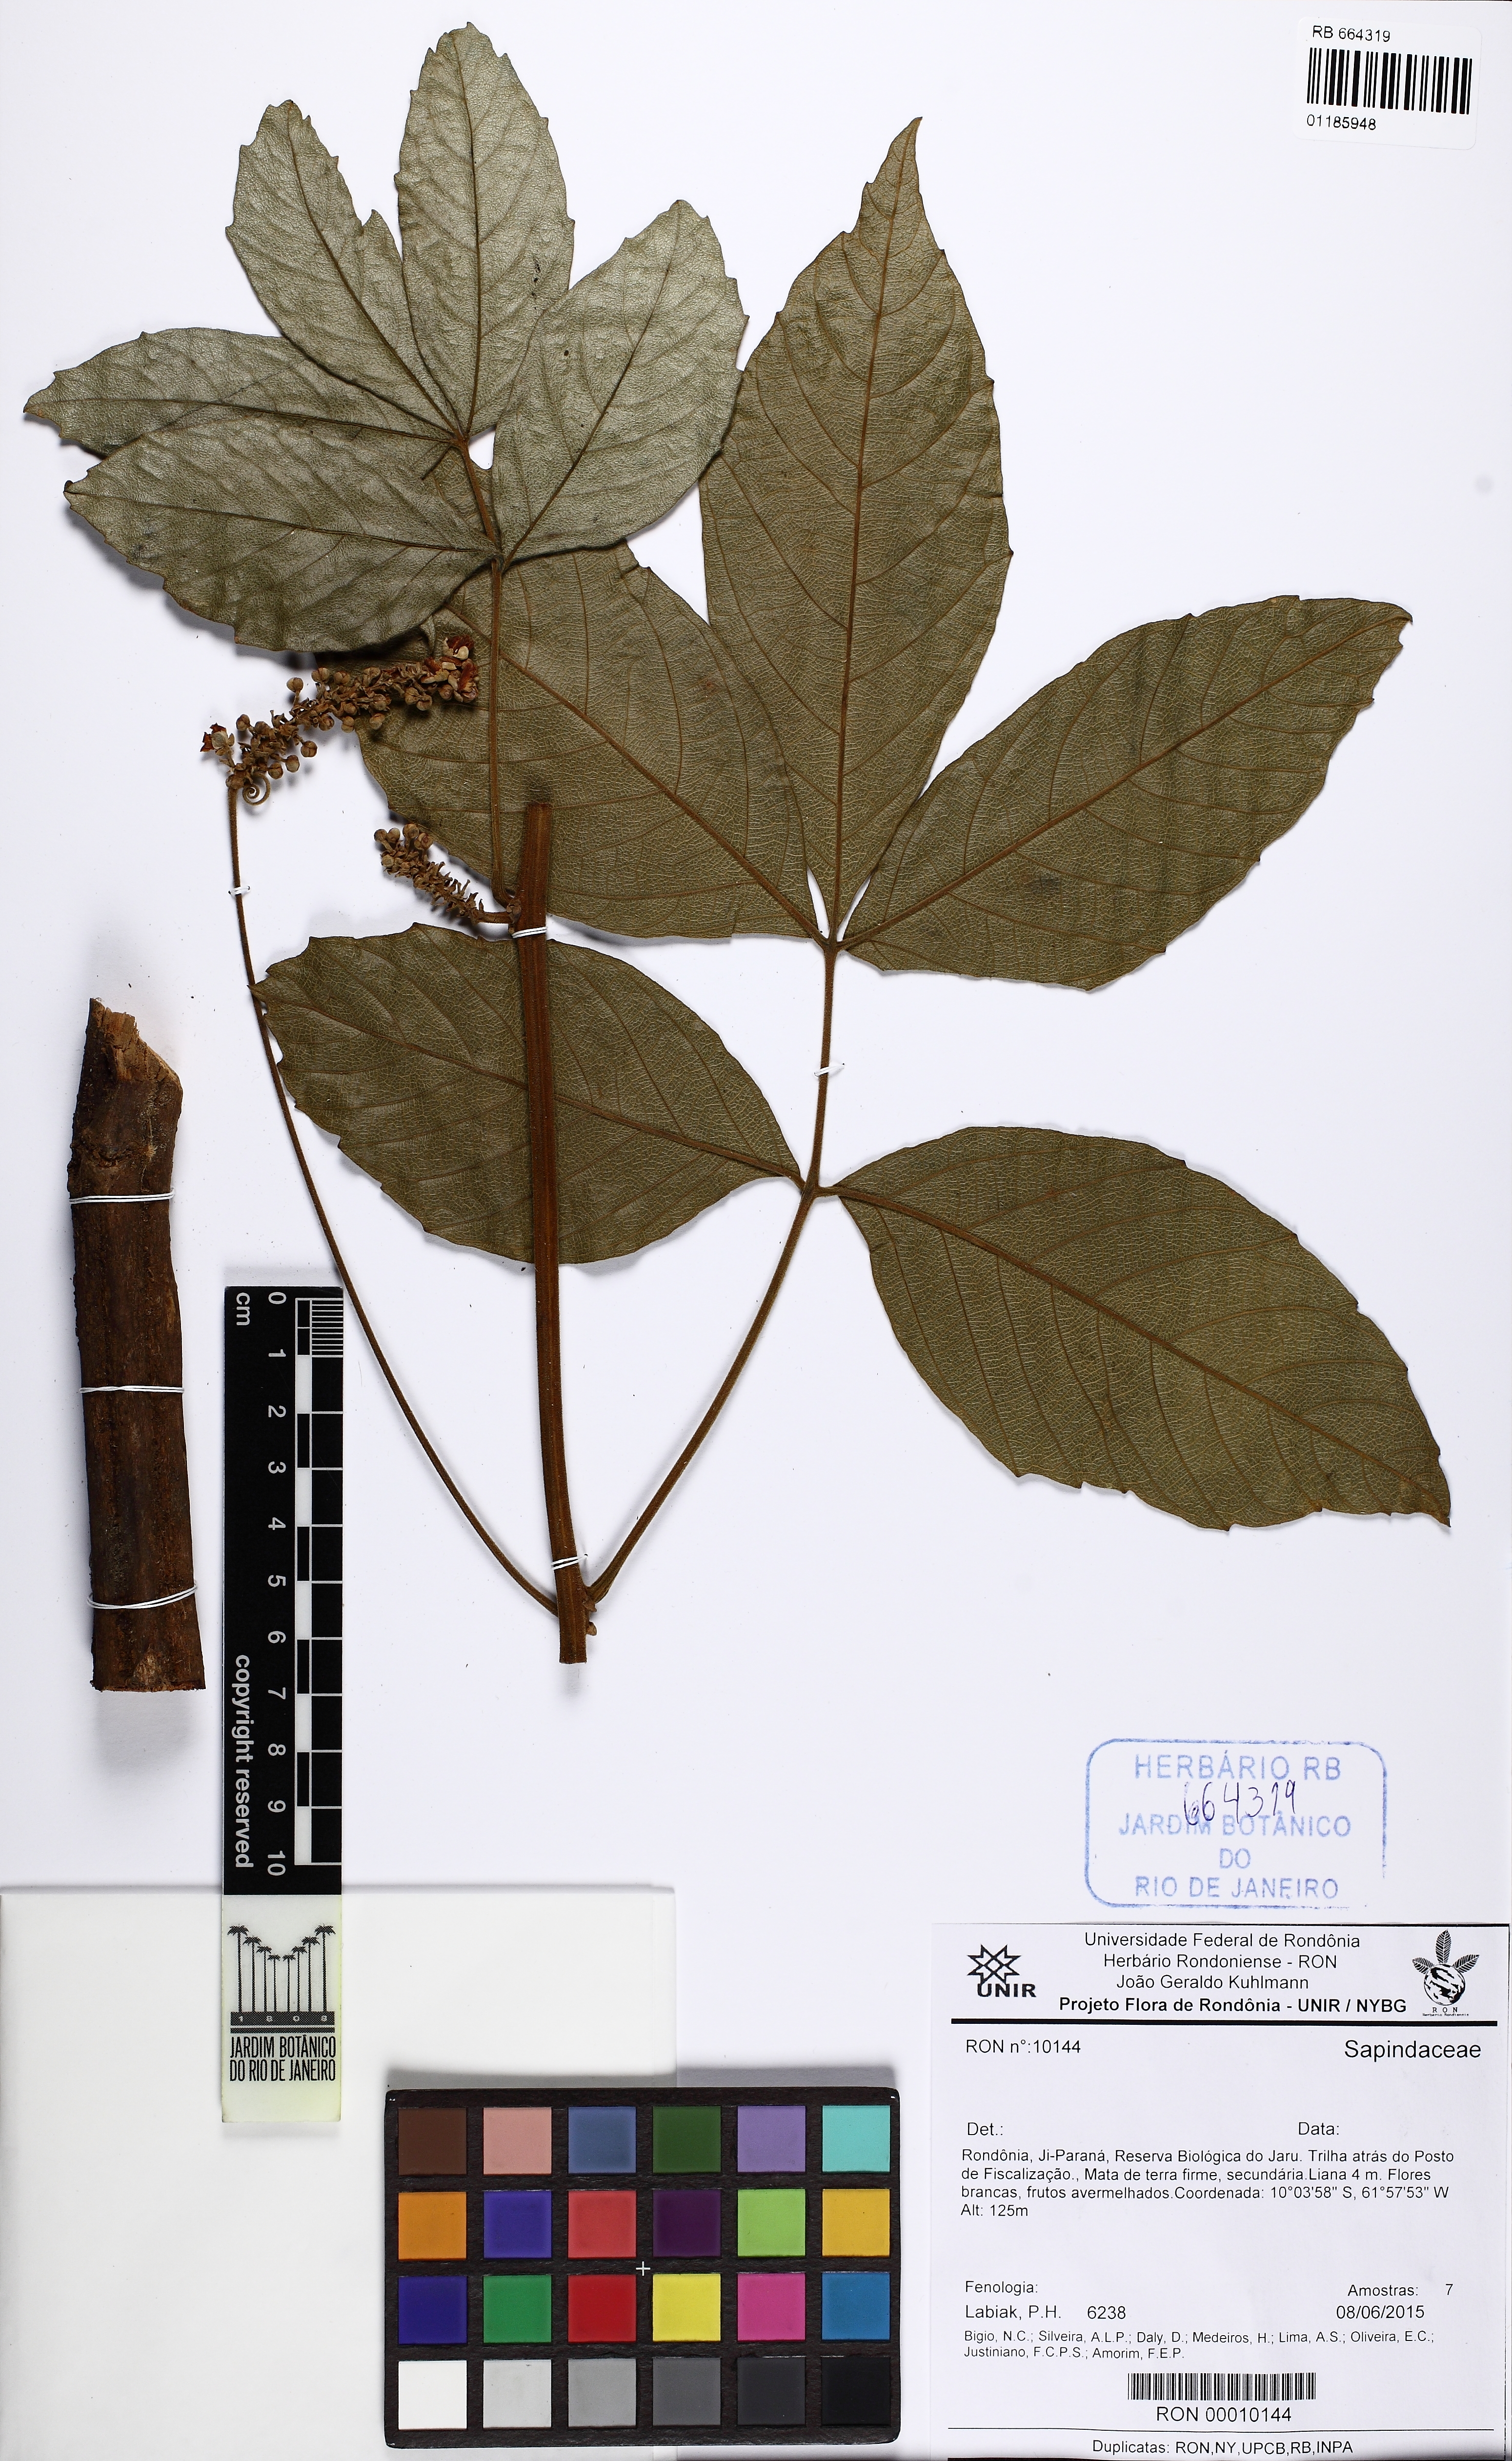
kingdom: Plantae
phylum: Tracheophyta
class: Magnoliopsida
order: Sapindales
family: Sapindaceae
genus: Paullinia
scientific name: Paullinia
